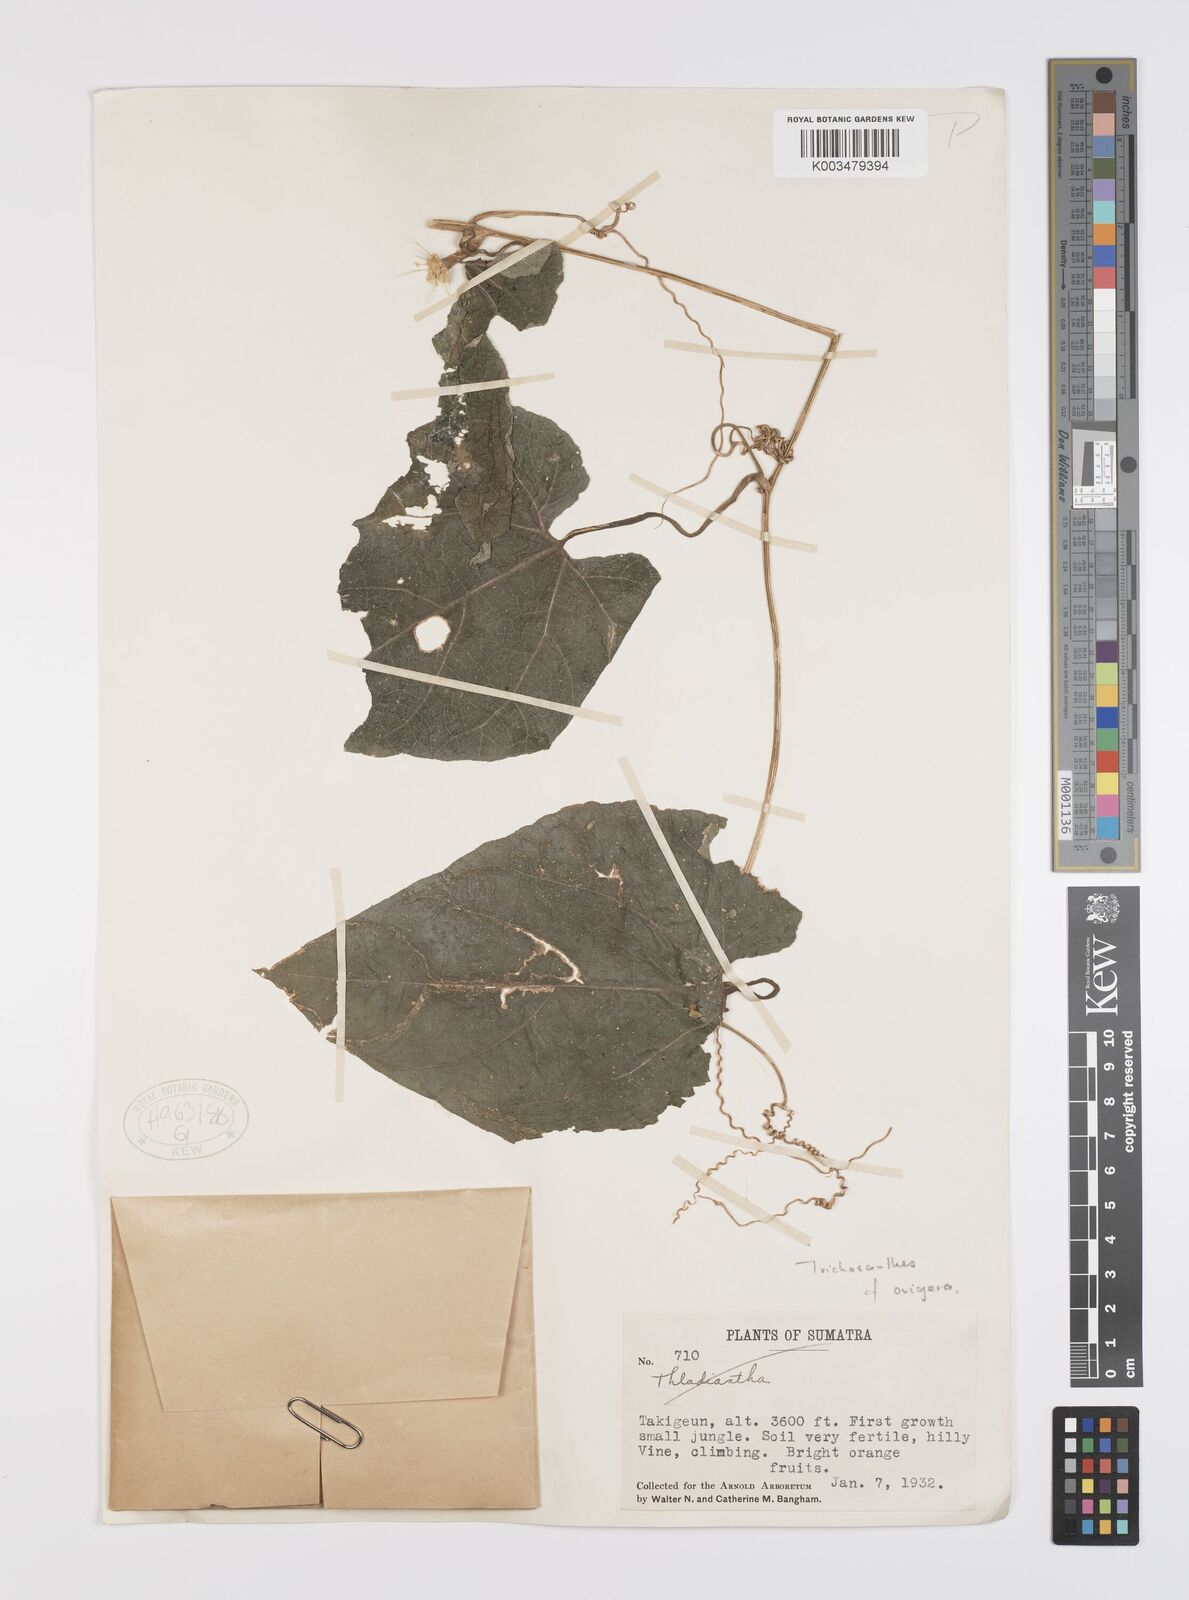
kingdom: Plantae
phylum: Tracheophyta
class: Magnoliopsida
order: Cucurbitales
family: Cucurbitaceae
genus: Trichosanthes
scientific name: Trichosanthes ovigera
